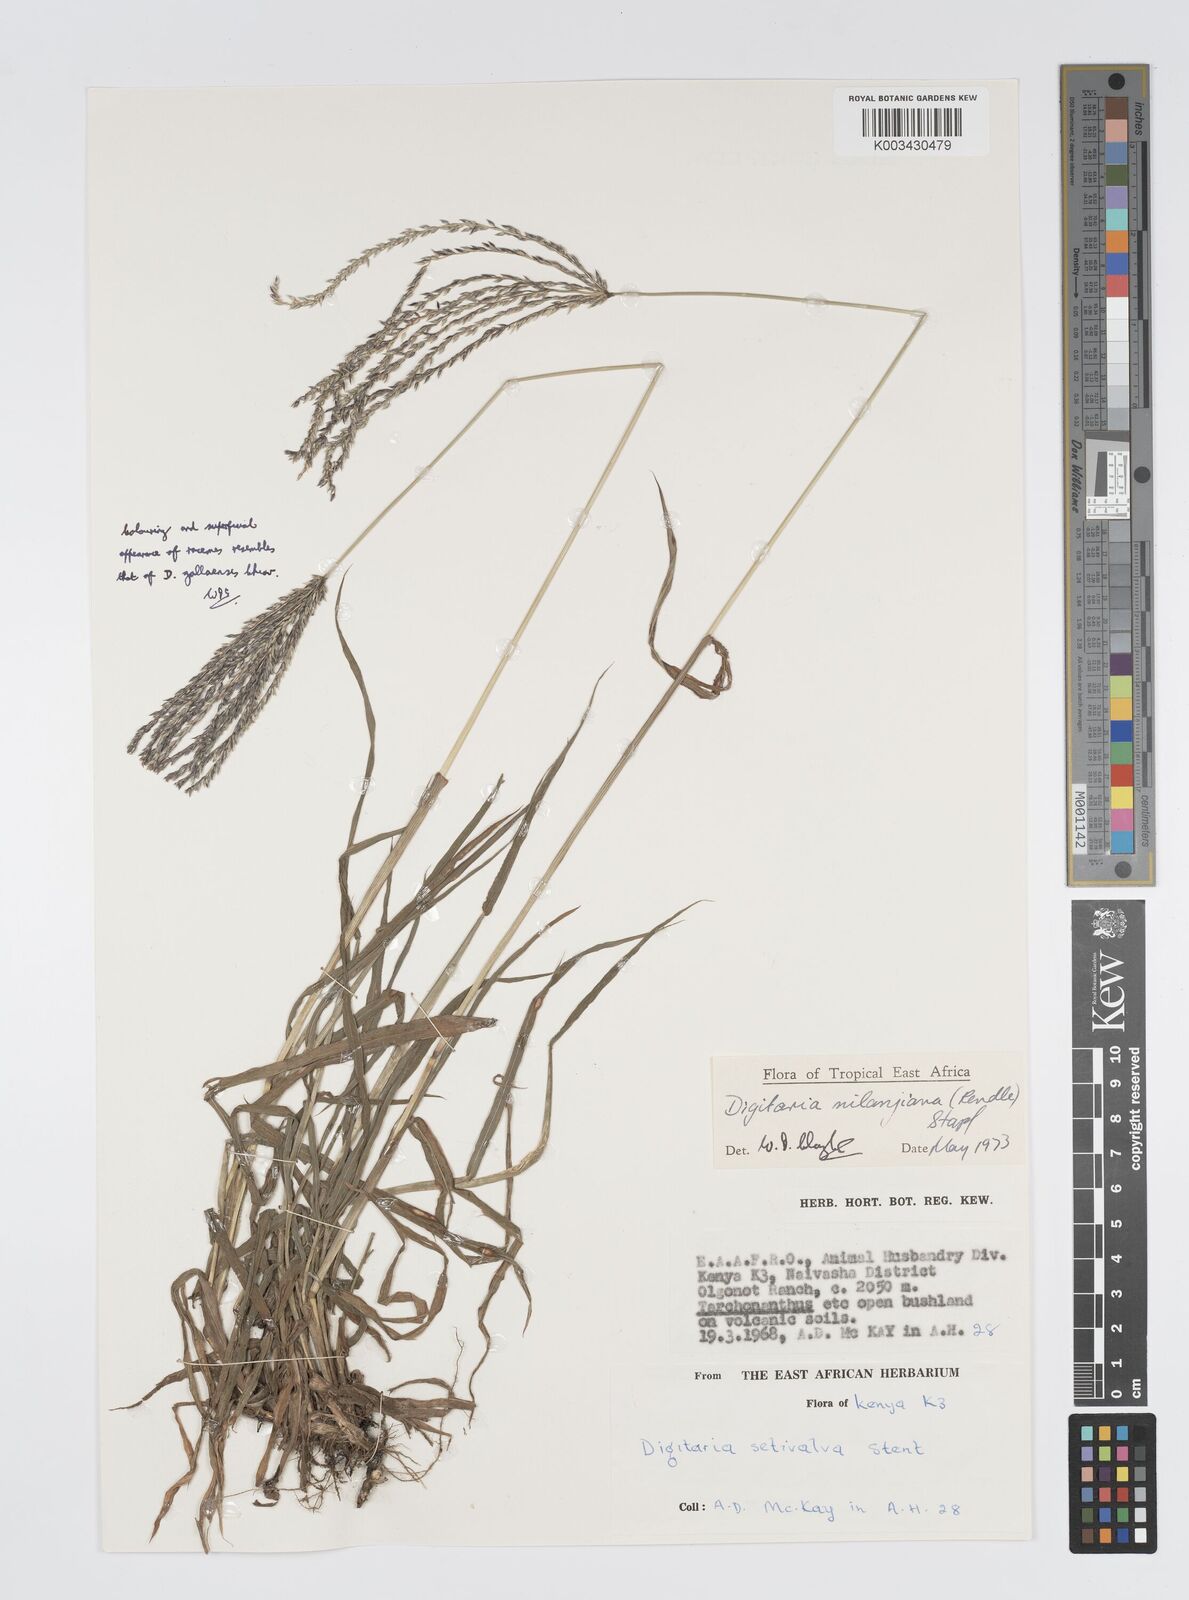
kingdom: Plantae
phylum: Tracheophyta
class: Liliopsida
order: Poales
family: Poaceae
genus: Digitaria
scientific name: Digitaria milanjiana
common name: Madagascar crabgrass
